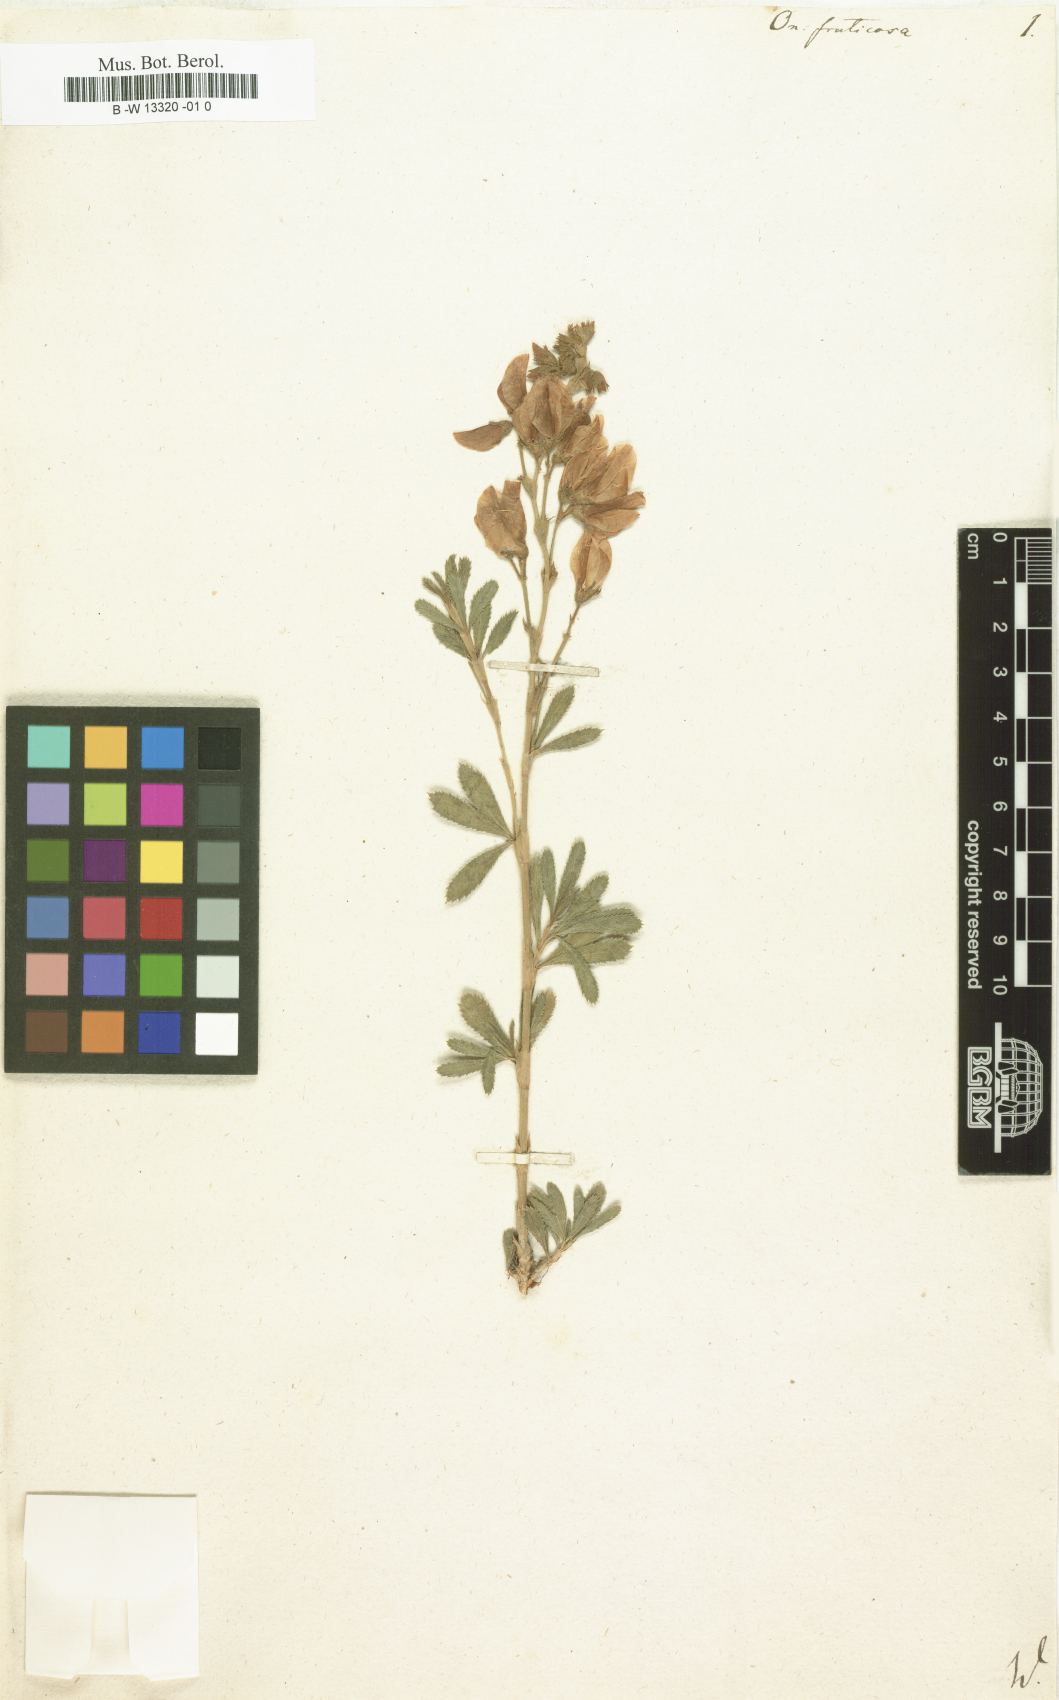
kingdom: Plantae
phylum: Tracheophyta
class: Magnoliopsida
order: Fabales
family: Fabaceae
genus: Ononis
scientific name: Ononis fruticosa
